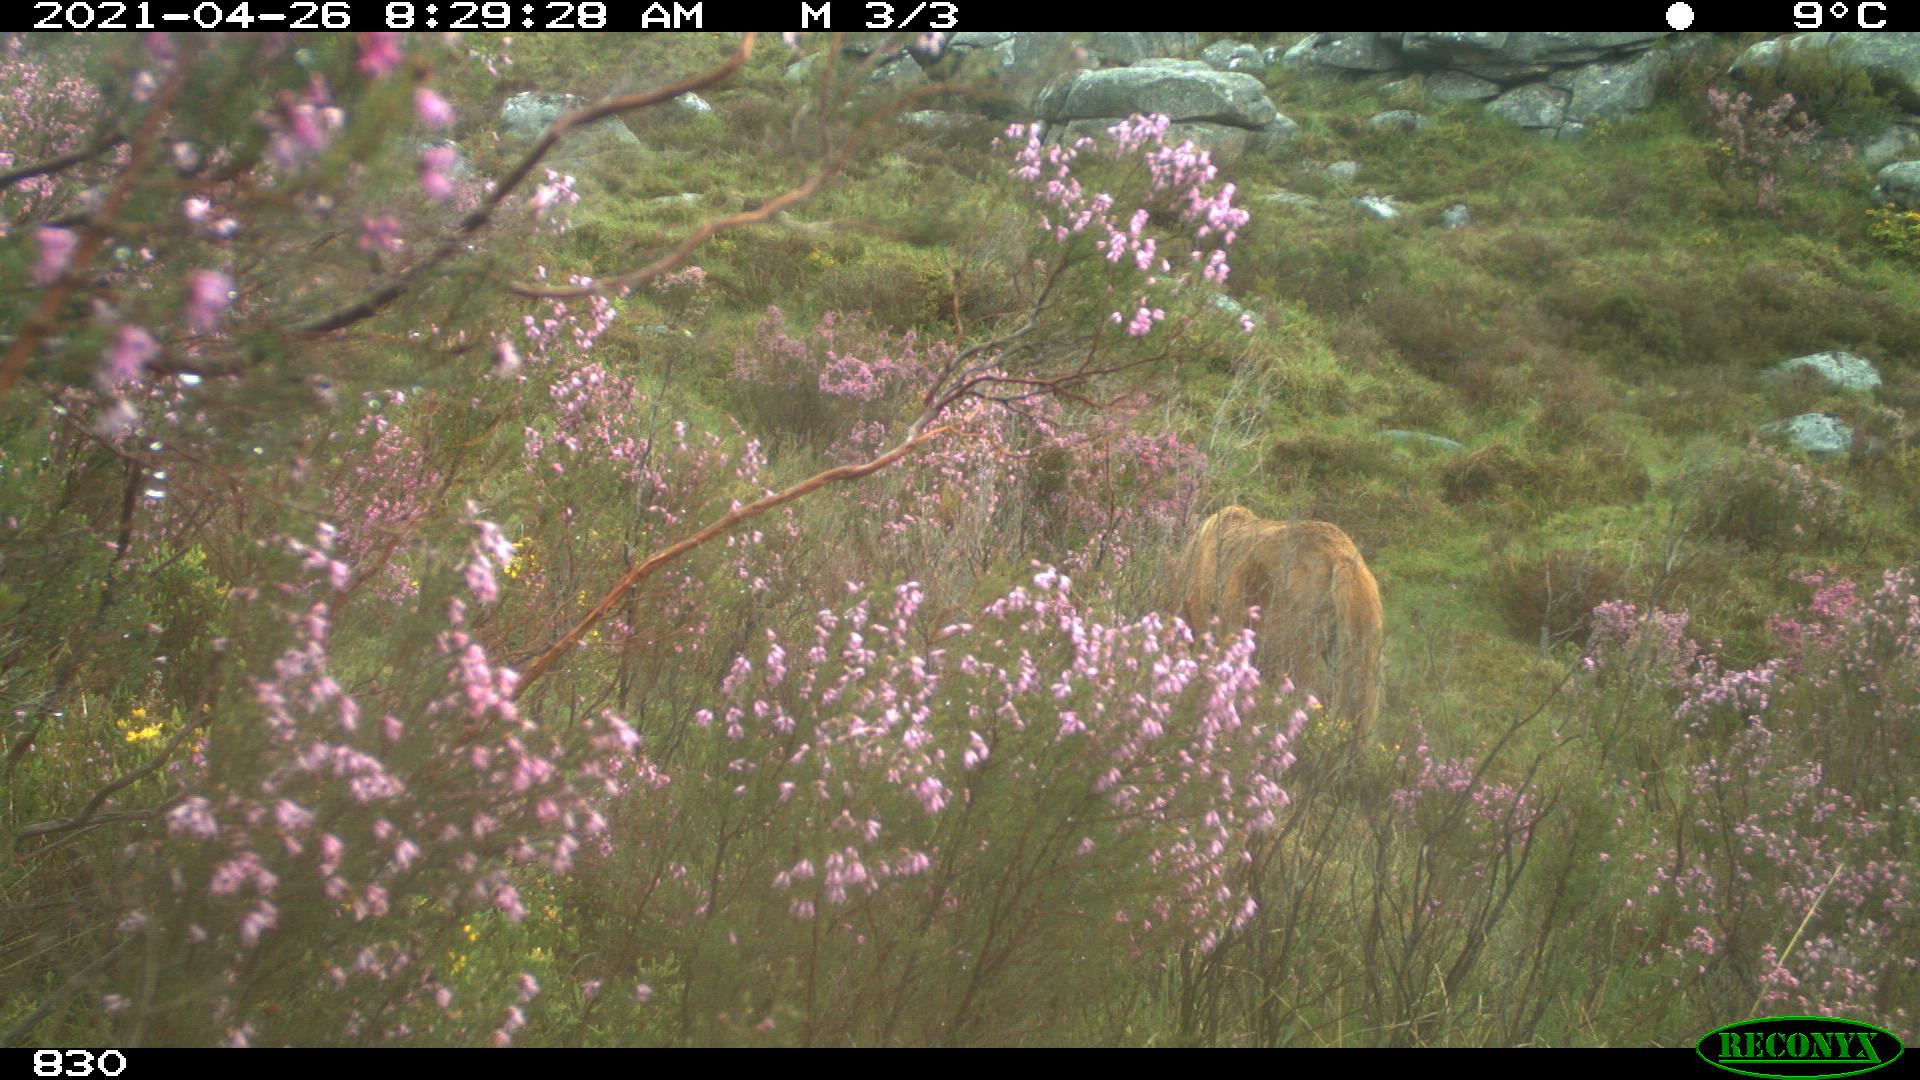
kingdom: Animalia
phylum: Chordata
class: Mammalia
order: Perissodactyla
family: Equidae
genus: Equus
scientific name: Equus caballus
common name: Horse
